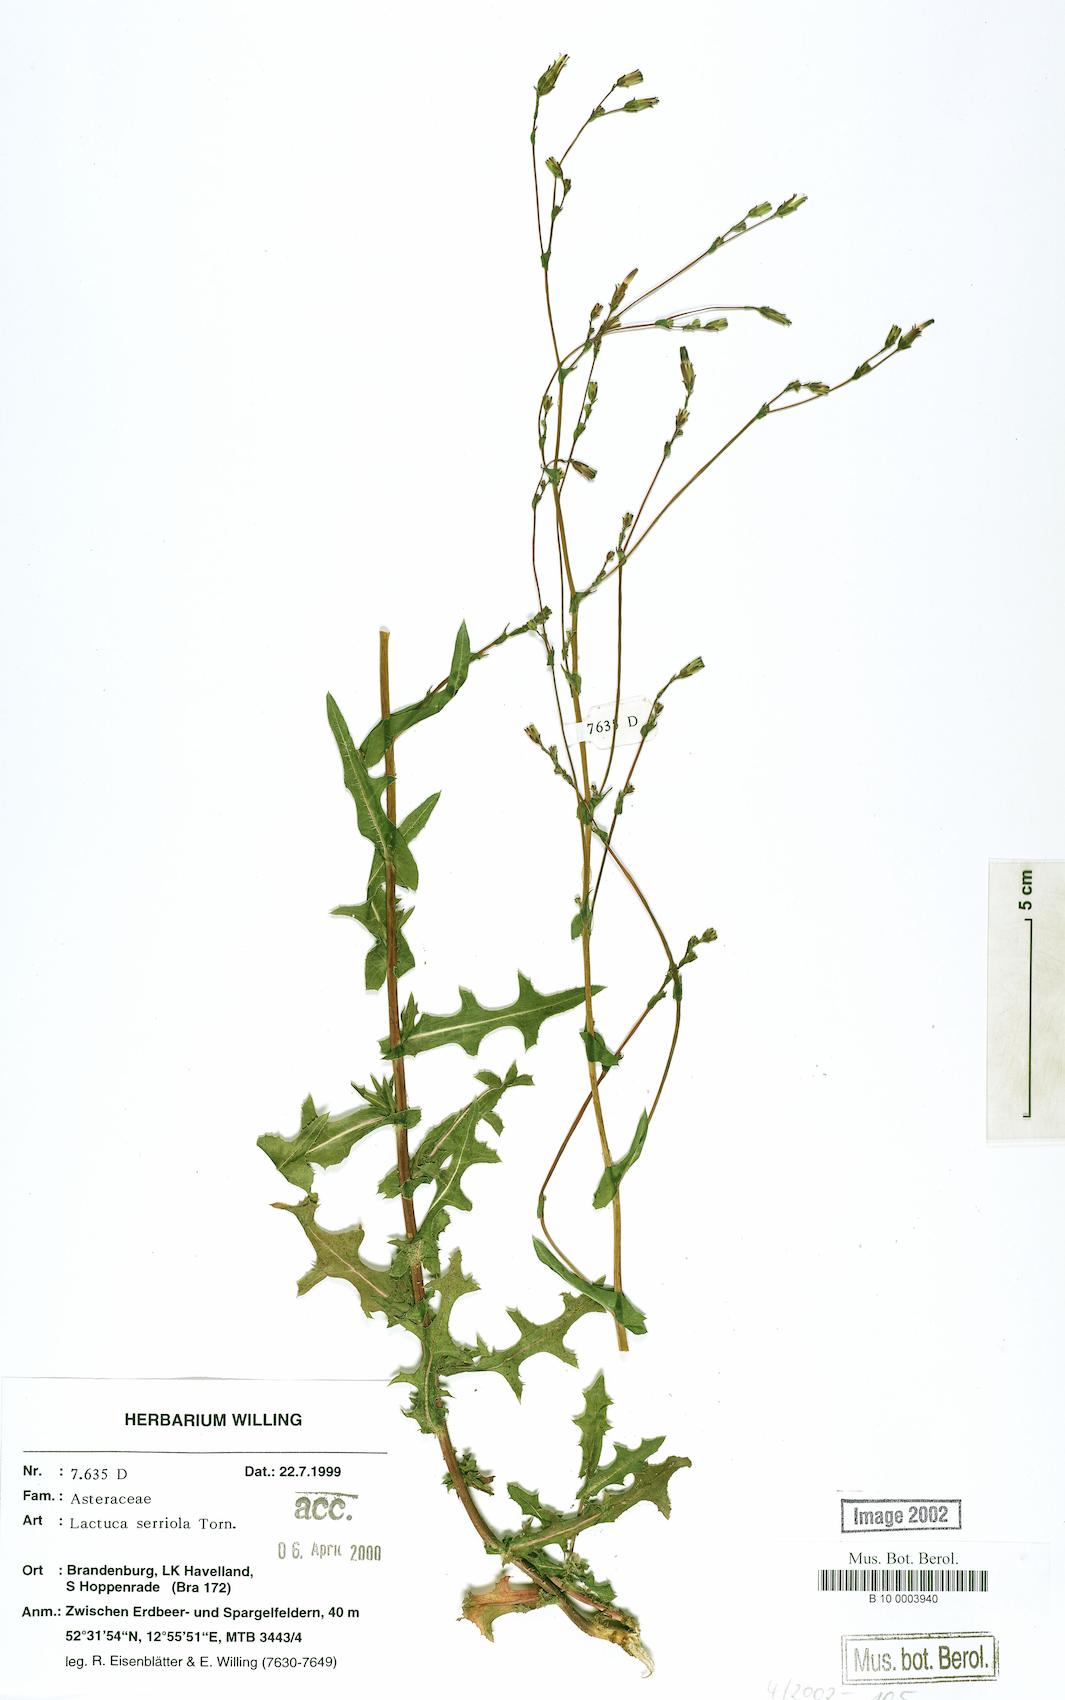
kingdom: Plantae
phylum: Tracheophyta
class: Magnoliopsida
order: Asterales
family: Asteraceae
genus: Lactuca
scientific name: Lactuca serriola
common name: Prickly lettuce
